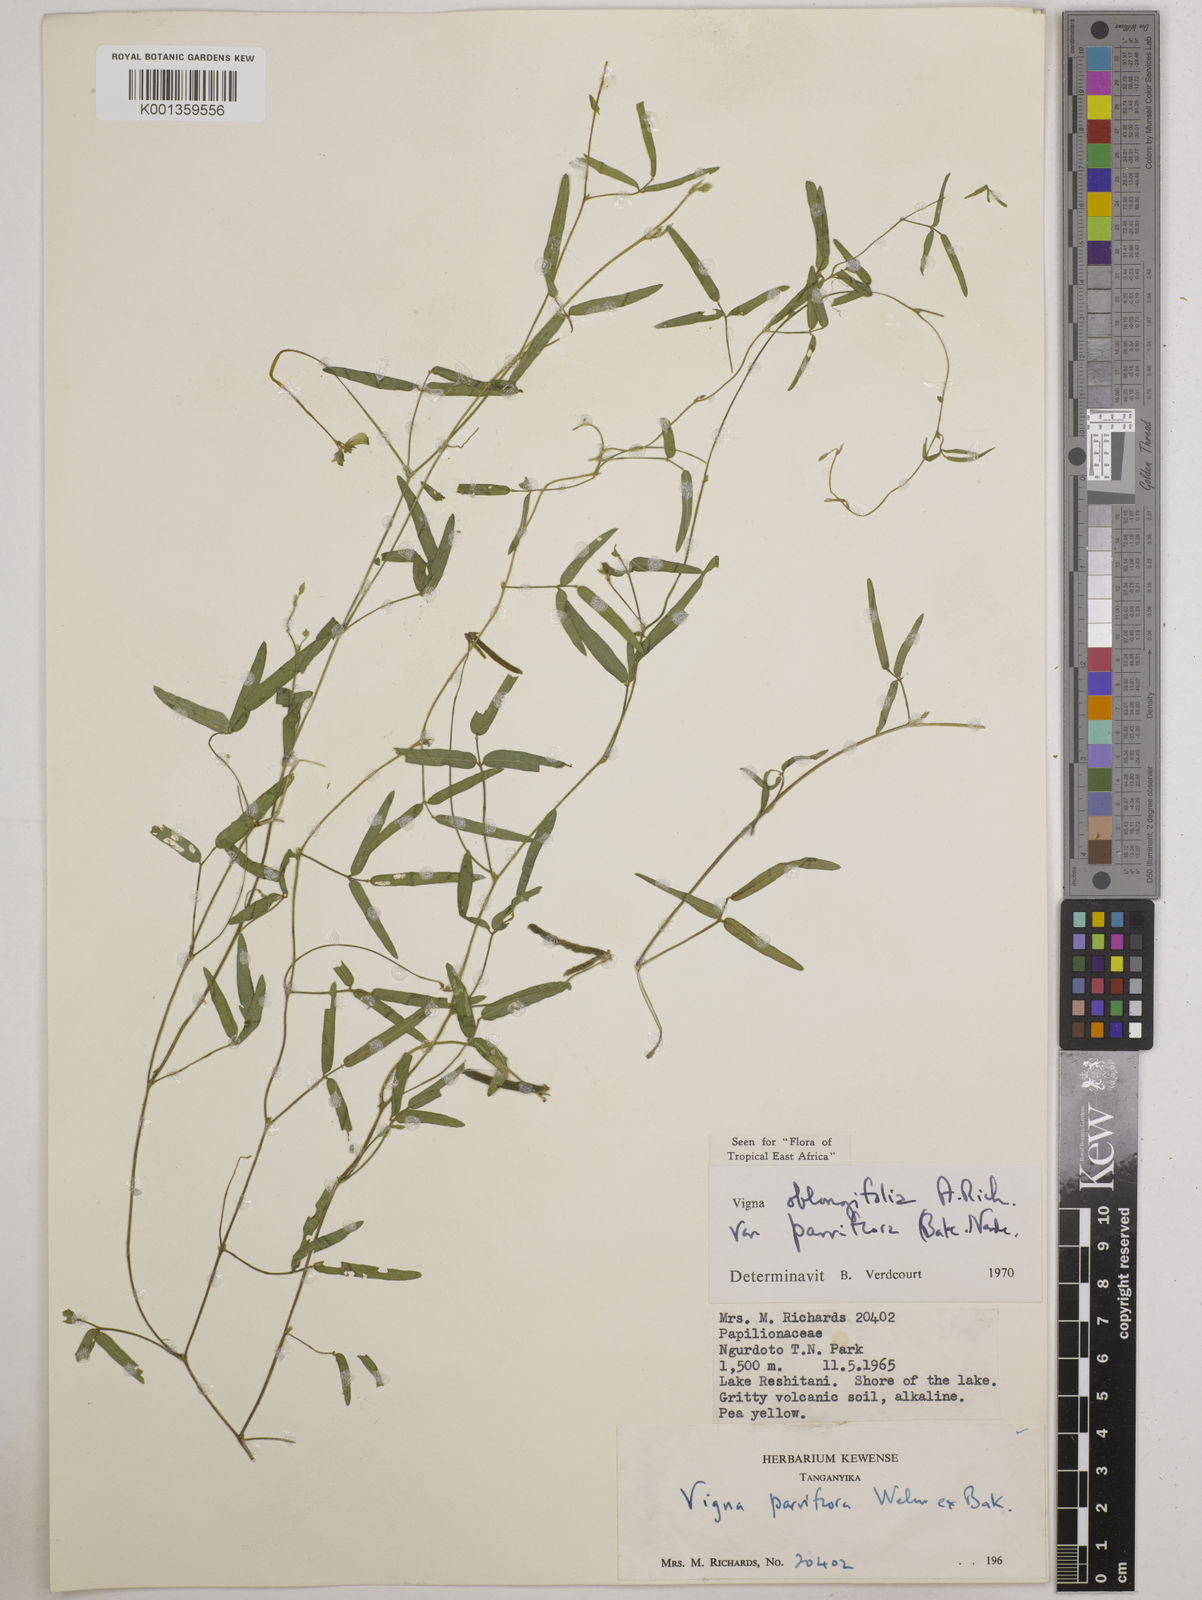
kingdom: Plantae
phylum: Tracheophyta
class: Magnoliopsida
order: Fabales
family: Fabaceae
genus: Vigna
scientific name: Vigna
